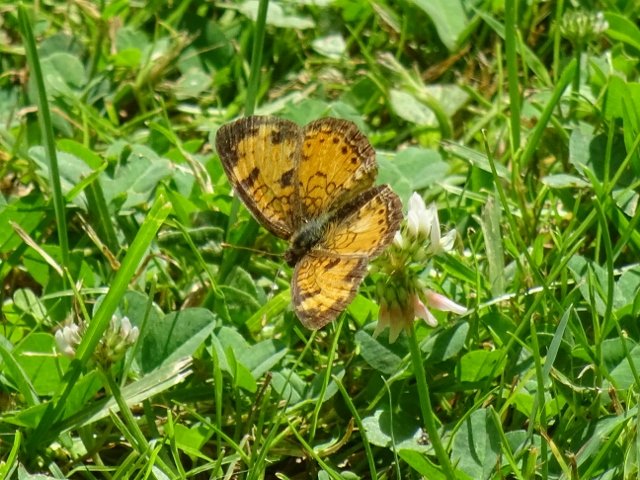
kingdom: Animalia
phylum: Arthropoda
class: Insecta
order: Lepidoptera
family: Nymphalidae
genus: Phyciodes
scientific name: Phyciodes tharos
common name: Northern Crescent
